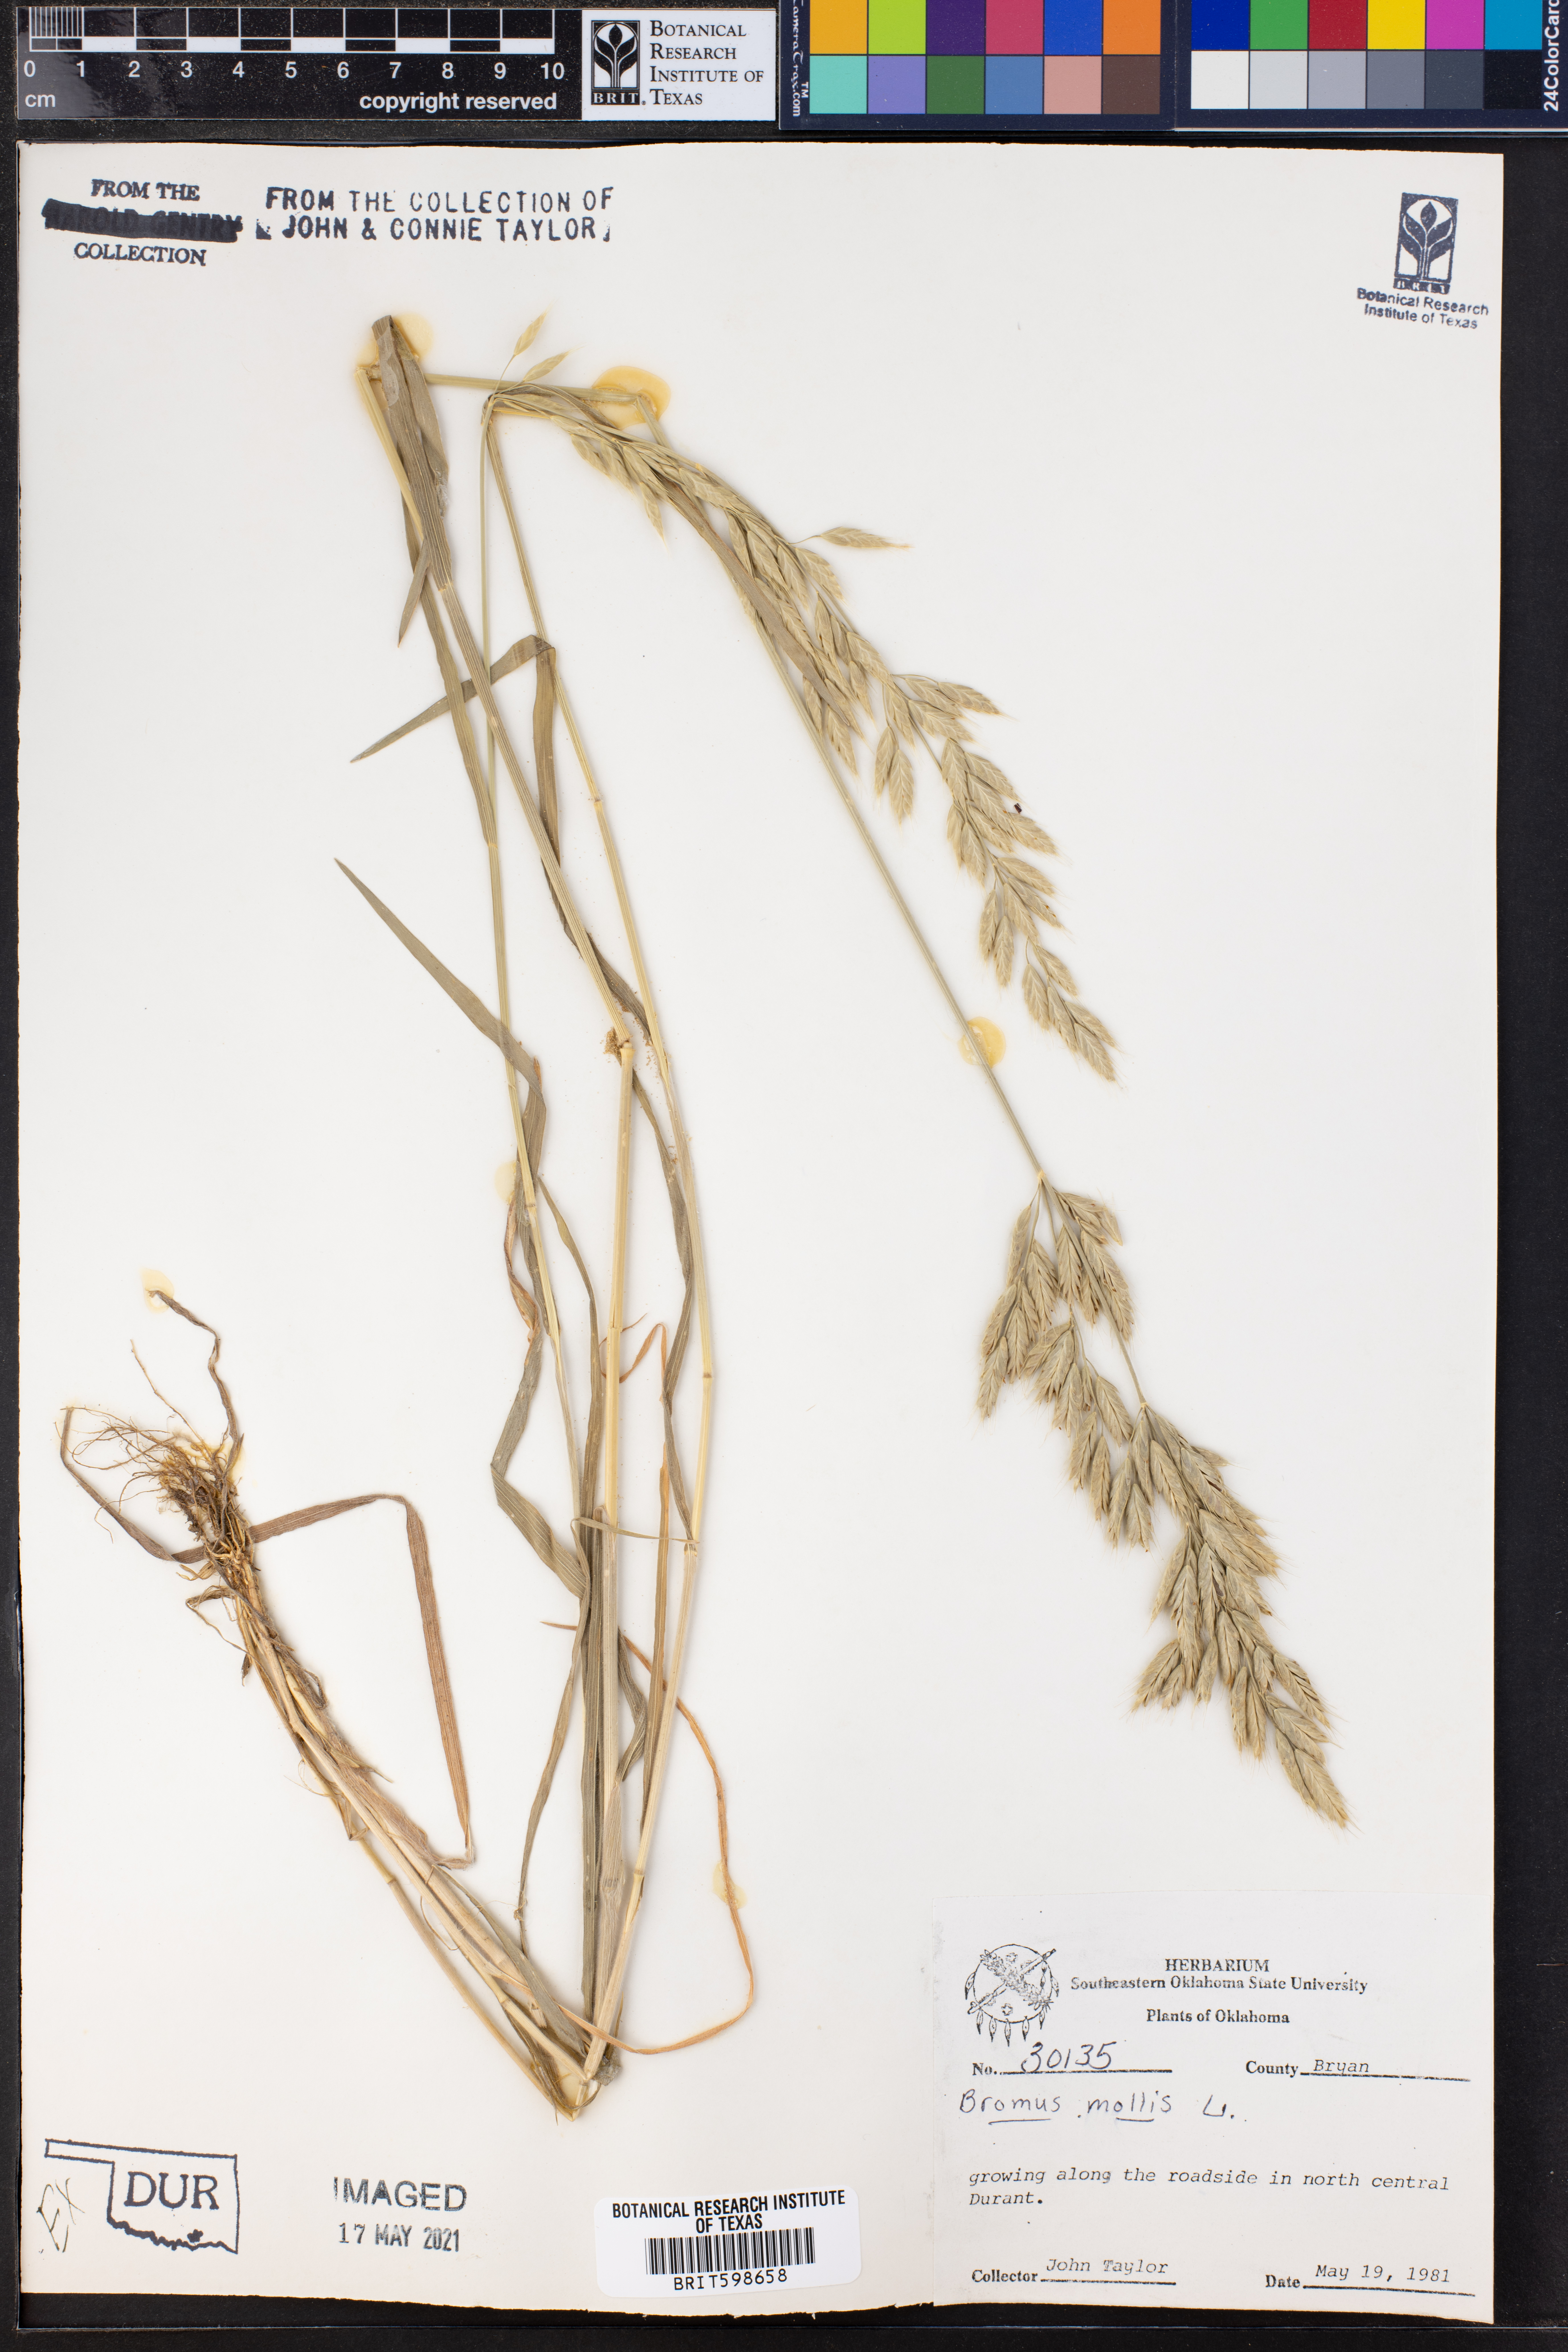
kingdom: Plantae
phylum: Tracheophyta
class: Liliopsida
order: Poales
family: Poaceae
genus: Bromus
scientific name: Bromus
